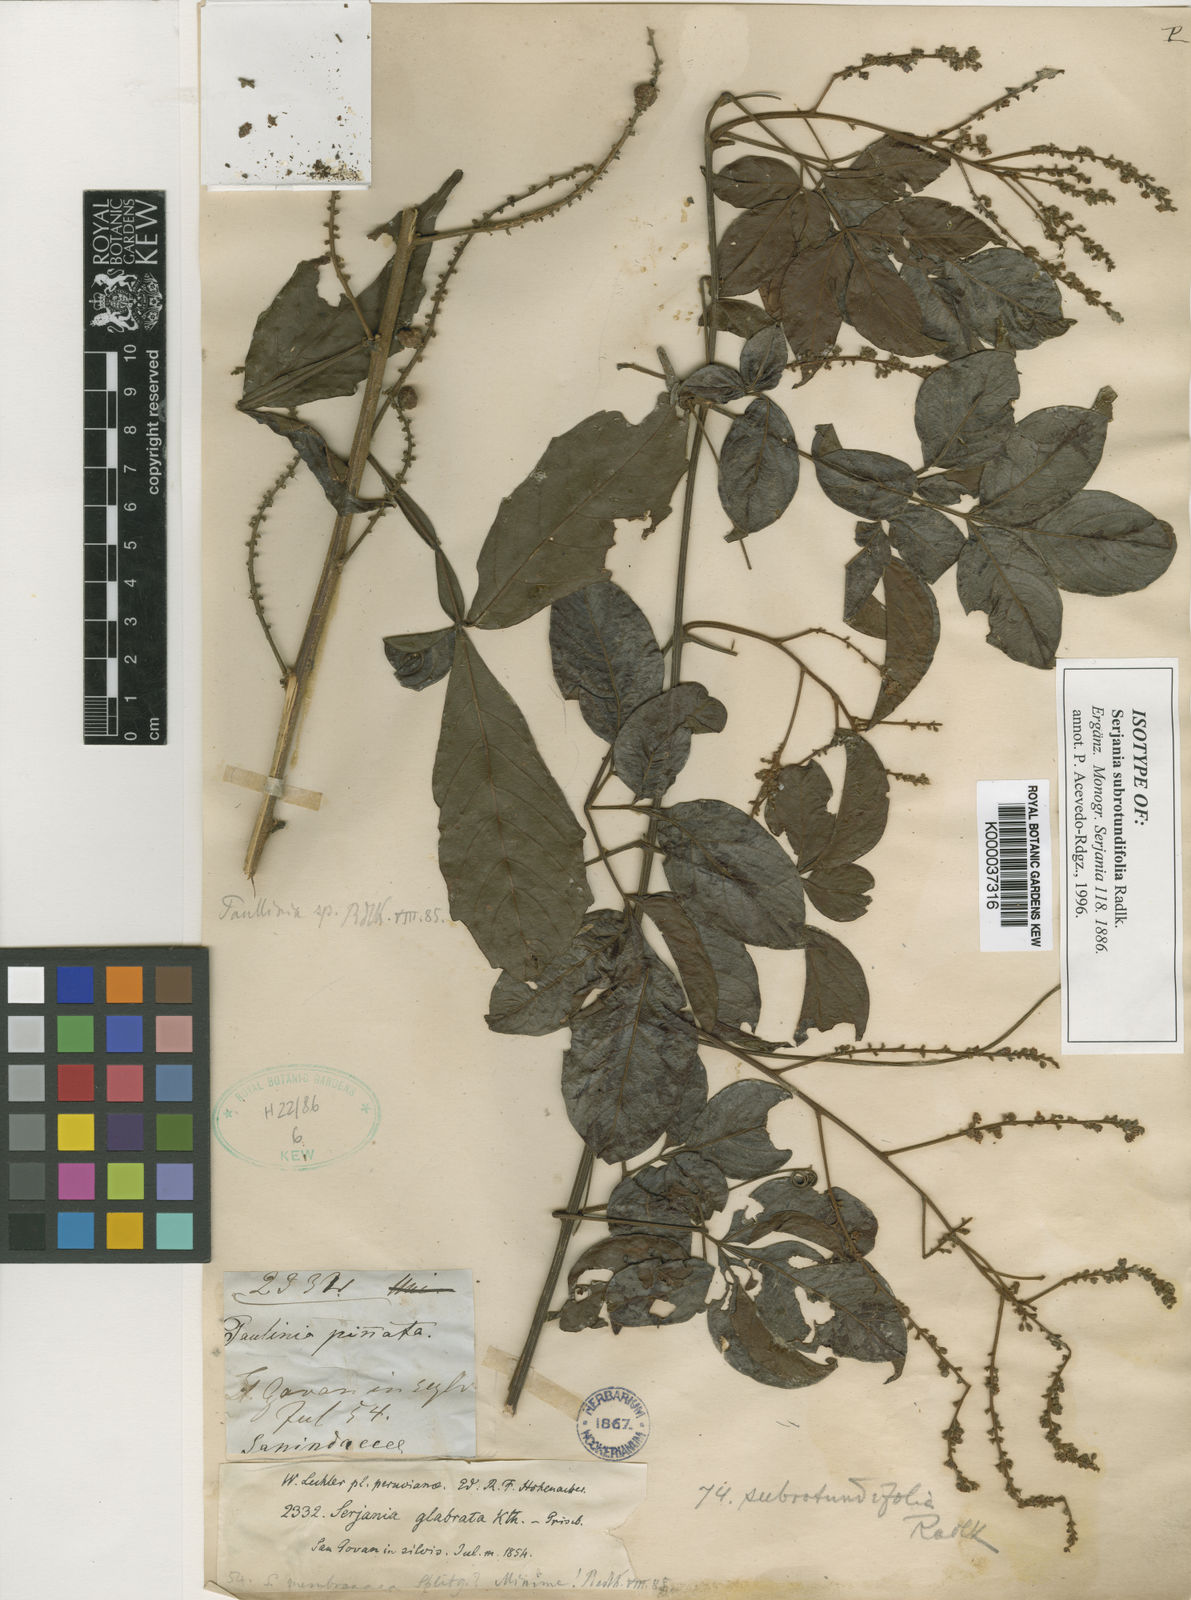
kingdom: Plantae
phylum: Tracheophyta
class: Magnoliopsida
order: Sapindales
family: Sapindaceae
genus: Serjania
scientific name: Serjania subrotundifolia
